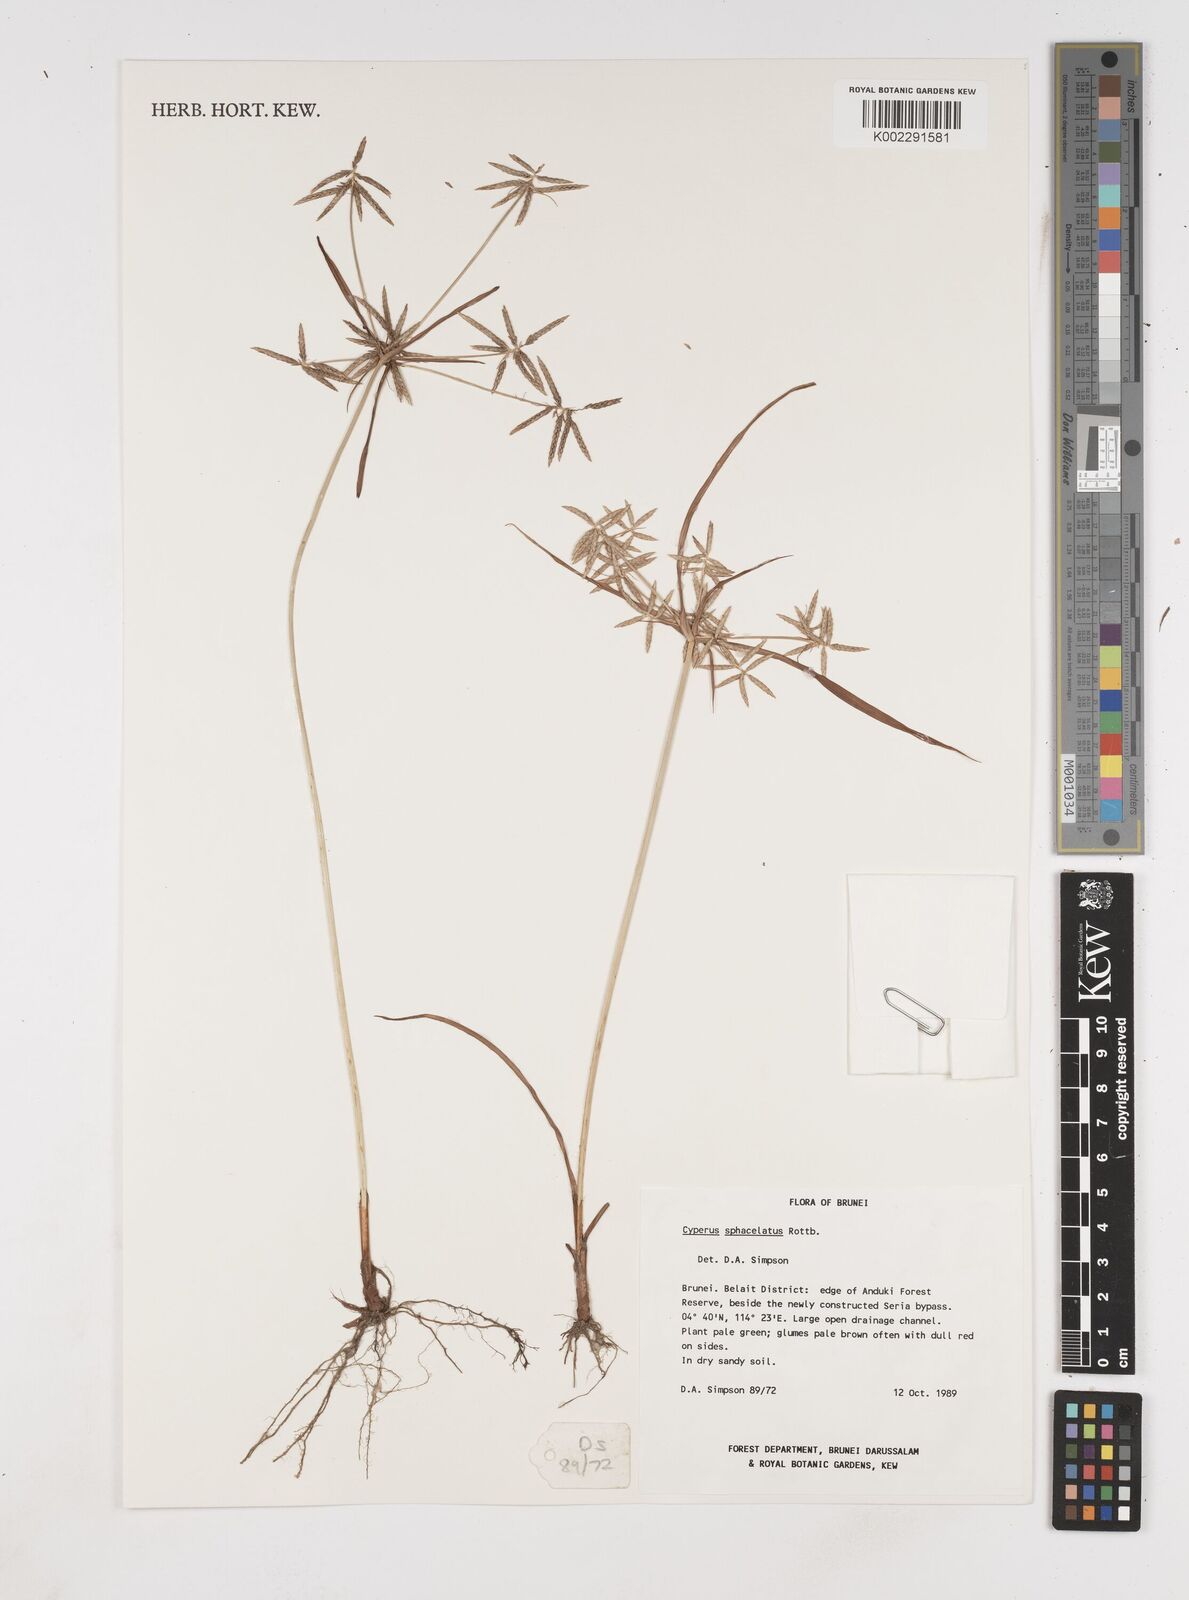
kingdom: Plantae
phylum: Tracheophyta
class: Liliopsida
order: Poales
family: Cyperaceae
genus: Cyperus
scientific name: Cyperus sphacelatus
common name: Roadside flatsedge
